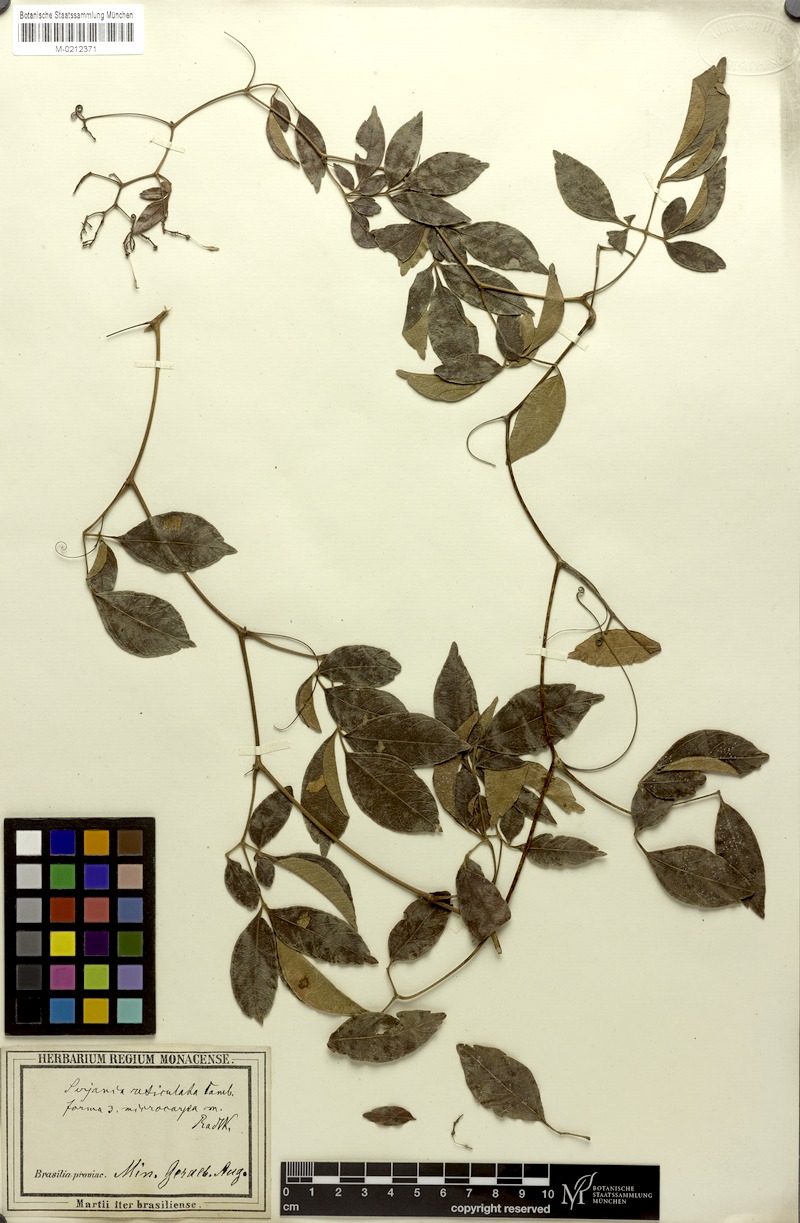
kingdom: Plantae
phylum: Tracheophyta
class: Magnoliopsida
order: Sapindales
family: Sapindaceae
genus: Serjania
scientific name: Serjania reticulata
